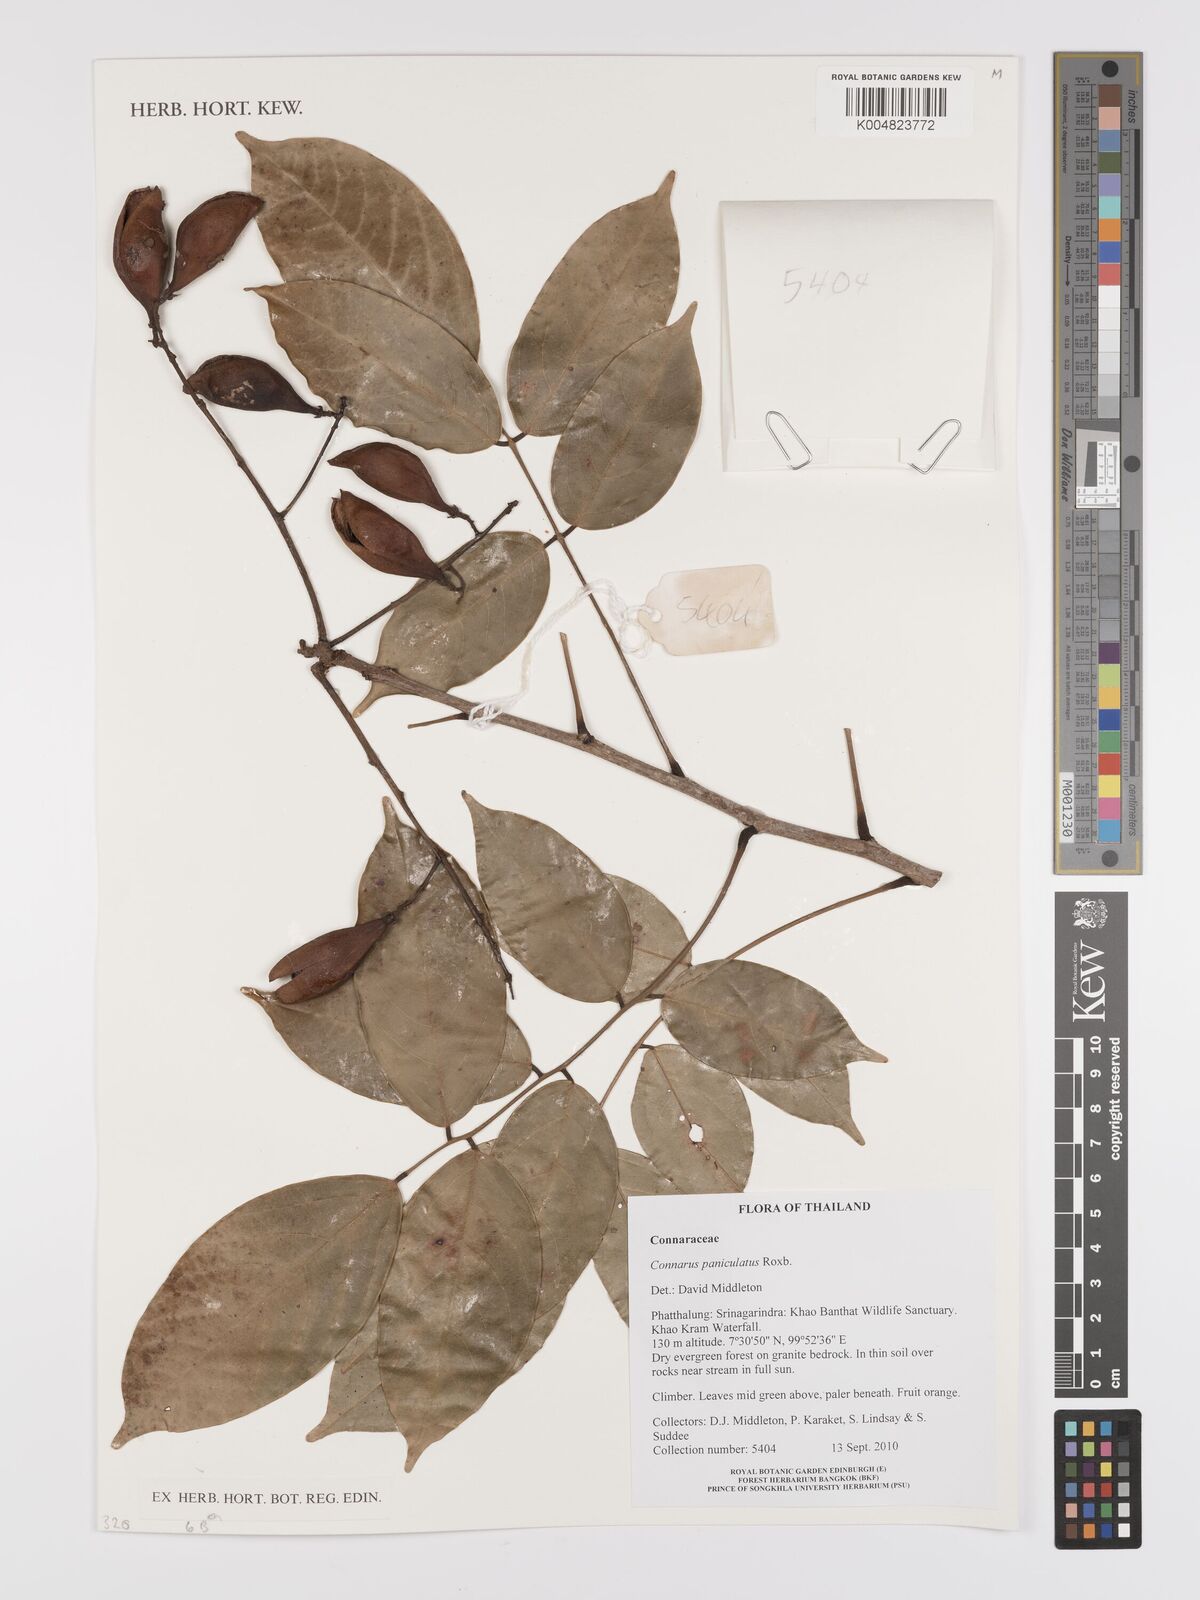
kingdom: Plantae
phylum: Tracheophyta
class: Magnoliopsida
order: Oxalidales
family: Connaraceae
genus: Connarus
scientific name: Connarus paniculatus
